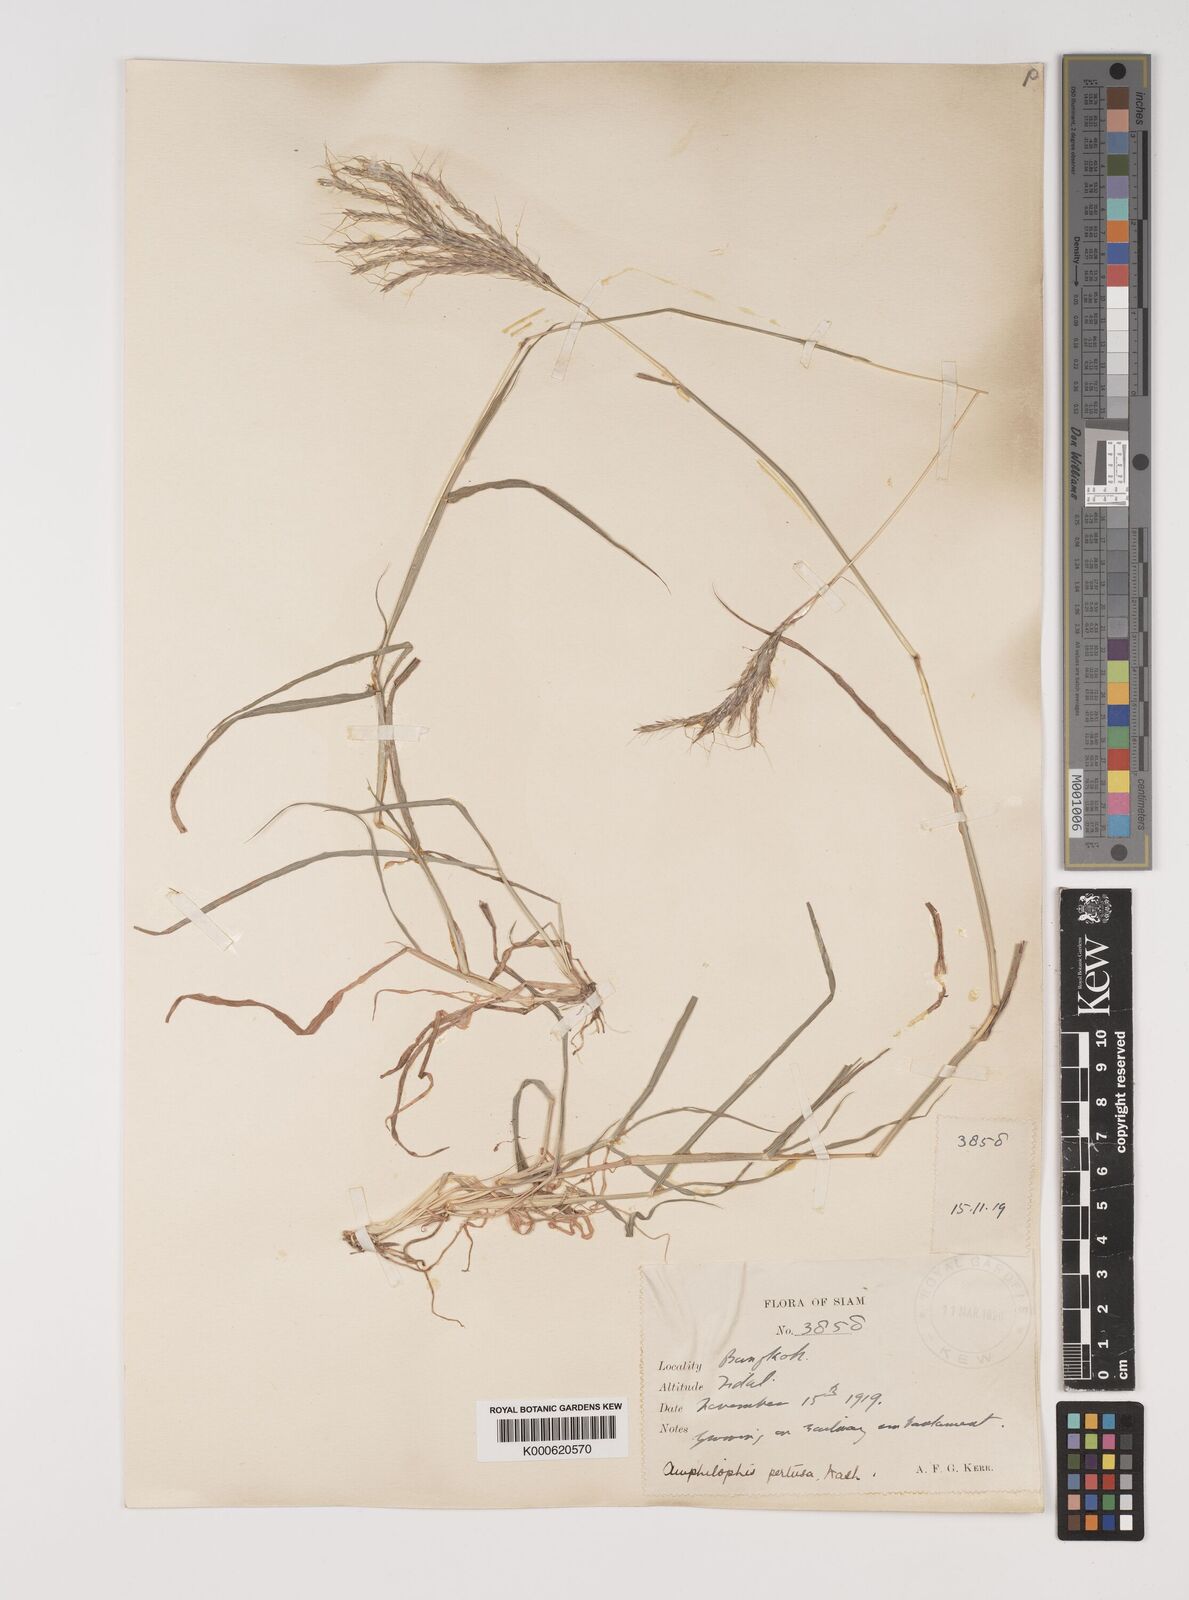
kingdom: Plantae
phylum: Tracheophyta
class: Liliopsida
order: Poales
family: Poaceae
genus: Bothriochloa
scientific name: Bothriochloa pertusa
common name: Pitted beardgrass
